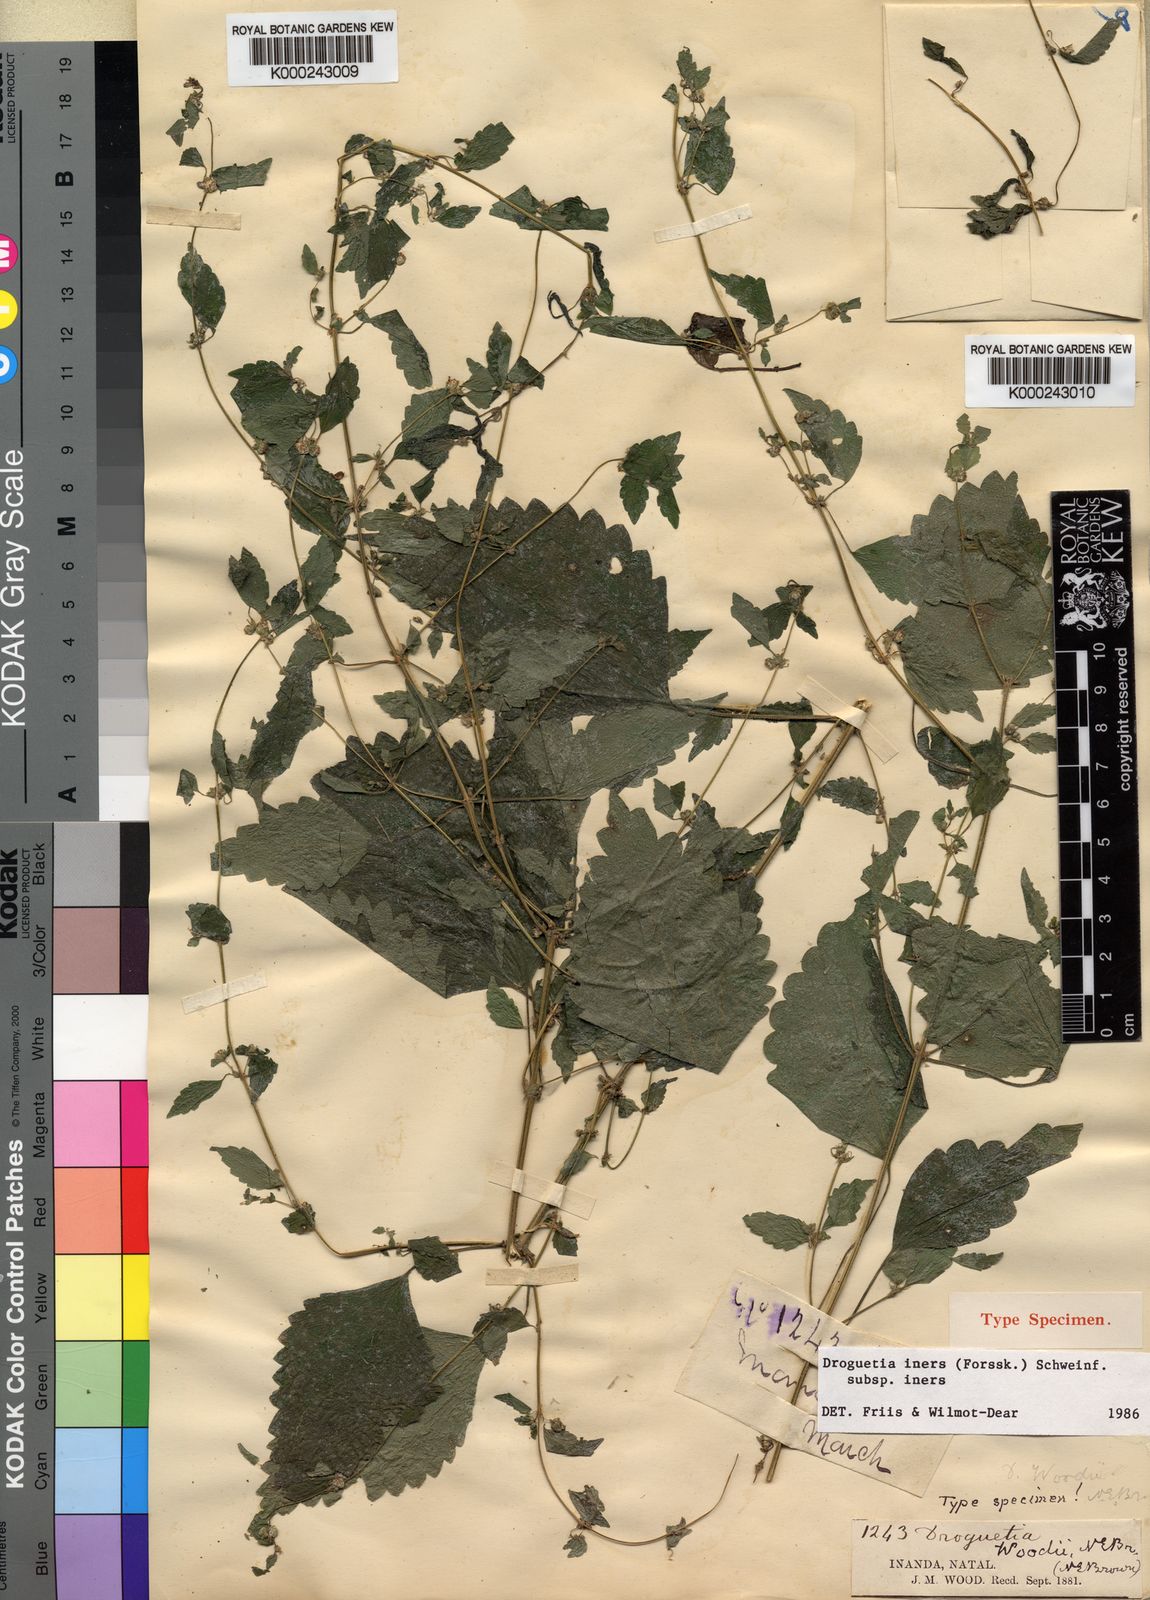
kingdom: Plantae
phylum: Tracheophyta
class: Magnoliopsida
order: Rosales
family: Urticaceae
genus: Droguetia
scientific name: Droguetia iners
